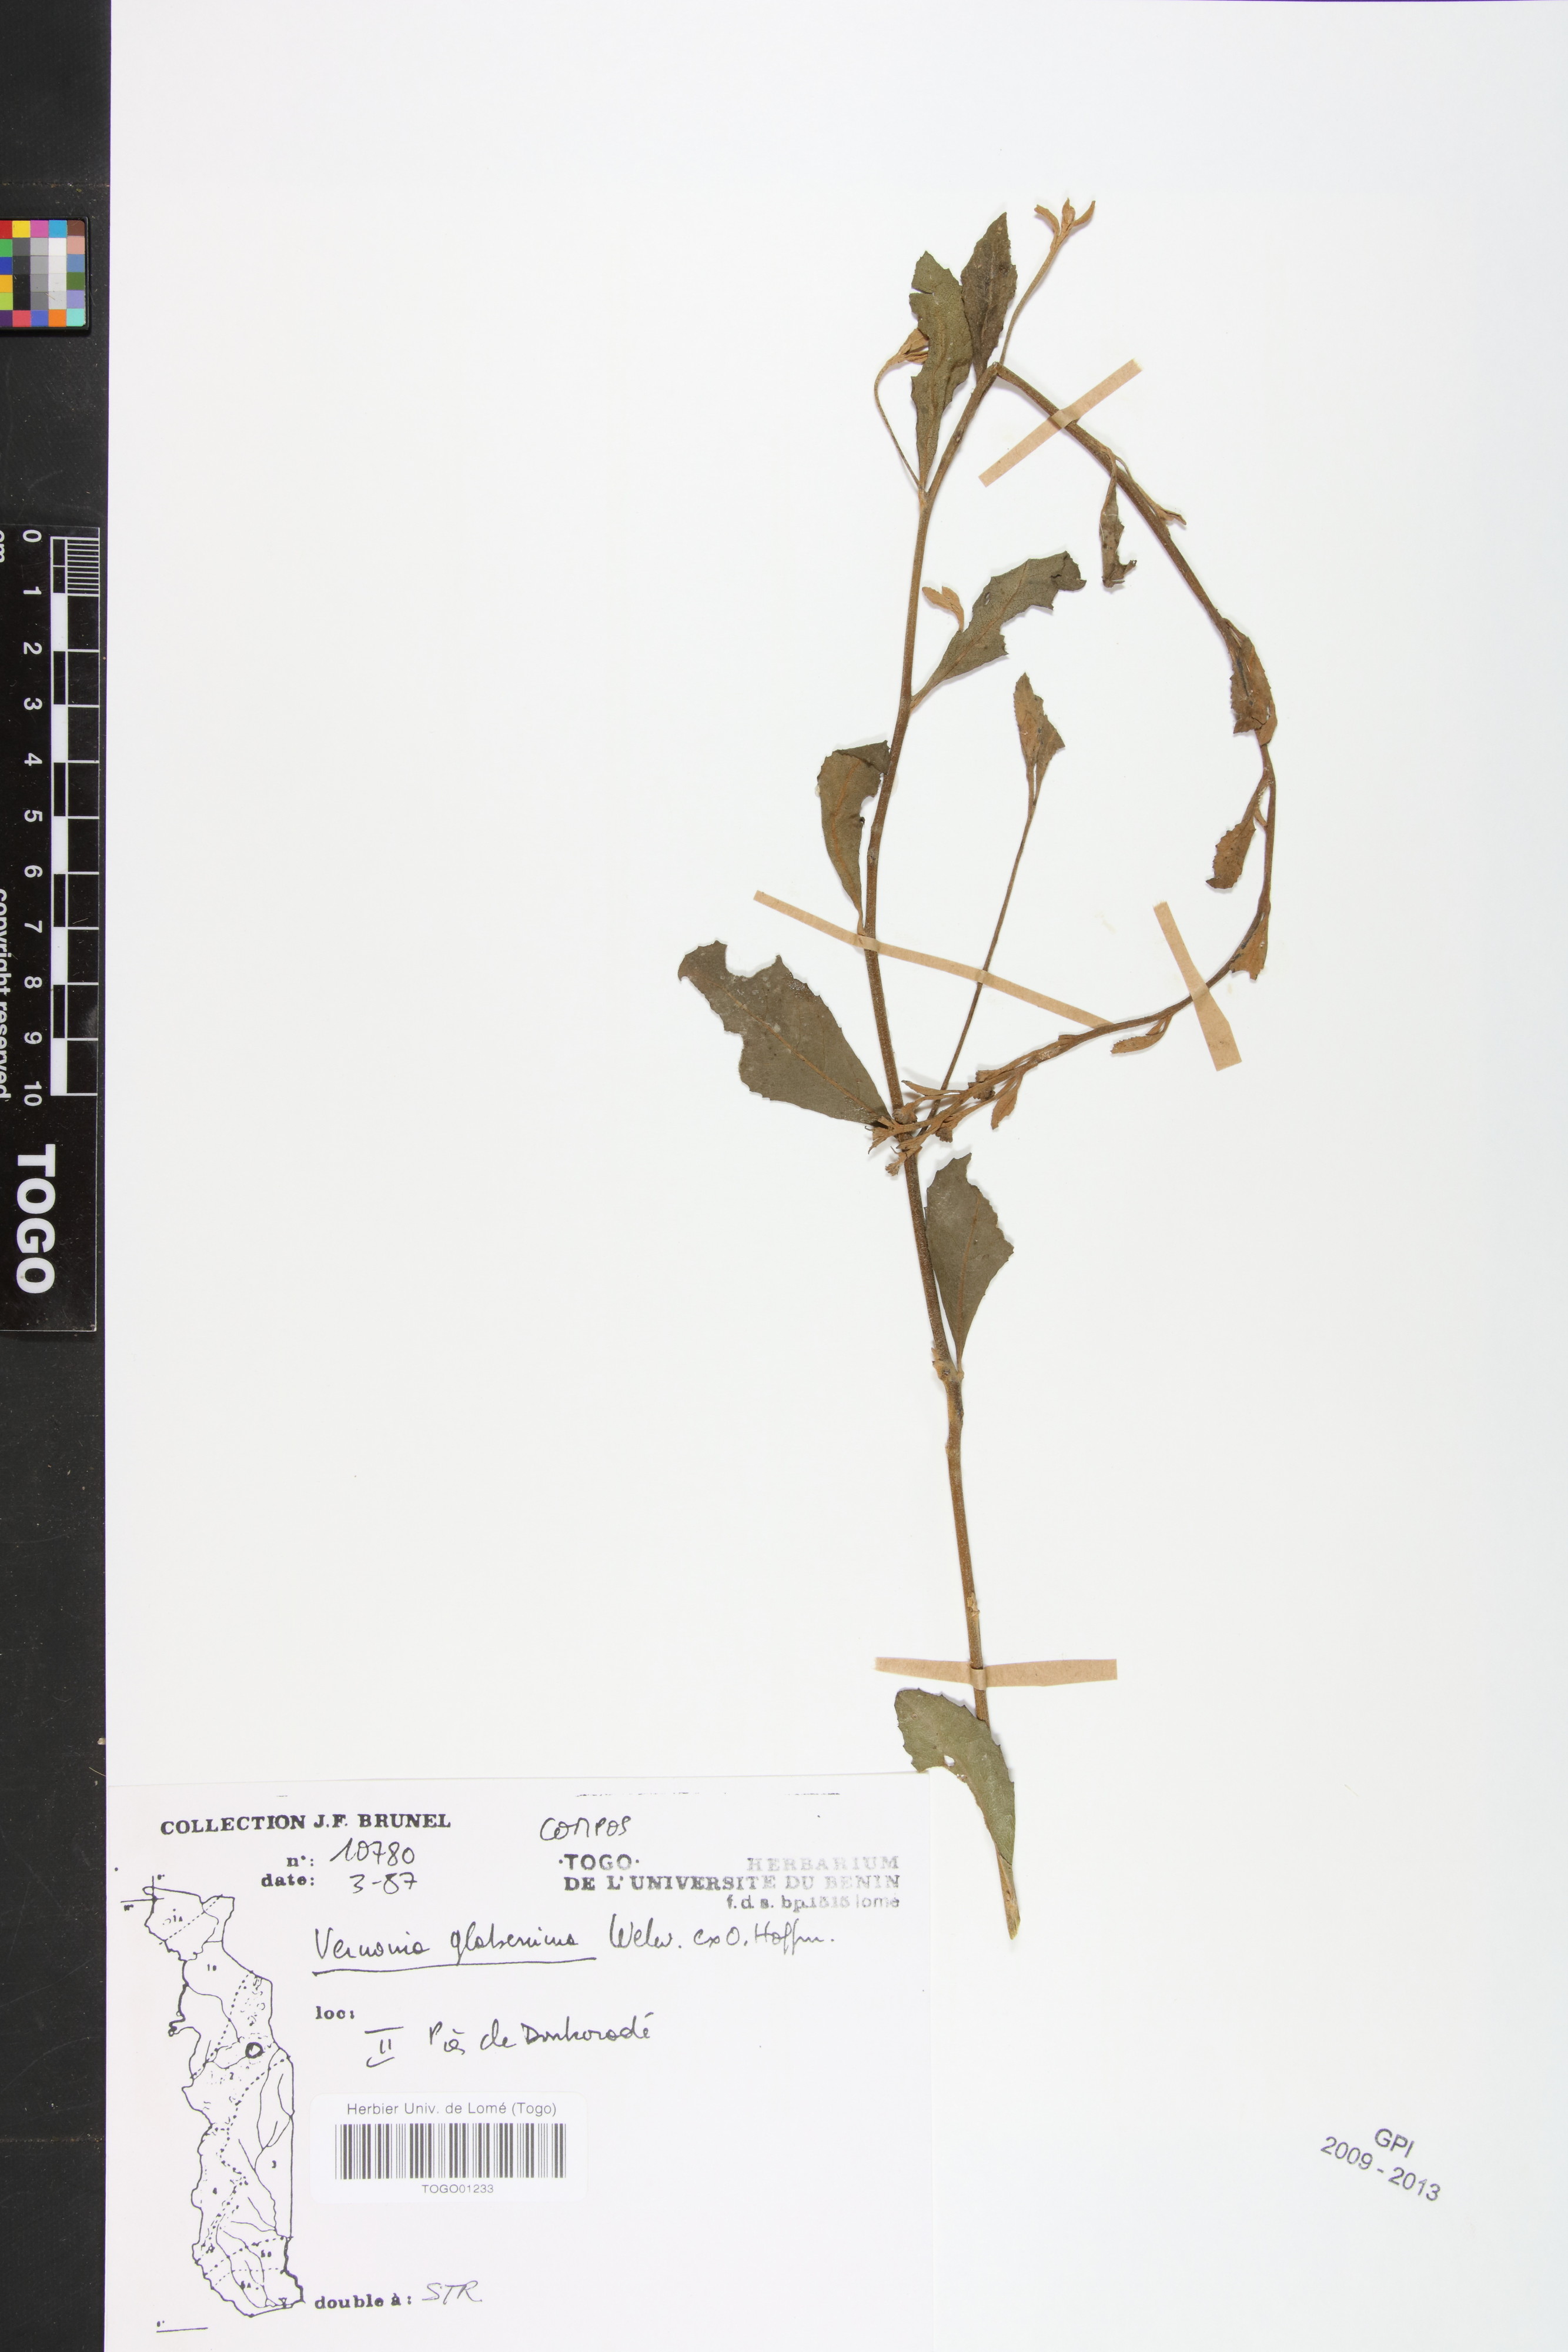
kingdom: Plantae
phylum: Tracheophyta
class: Magnoliopsida
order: Asterales
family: Asteraceae
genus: Gymnanthemum
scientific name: Gymnanthemum glaberrimum
